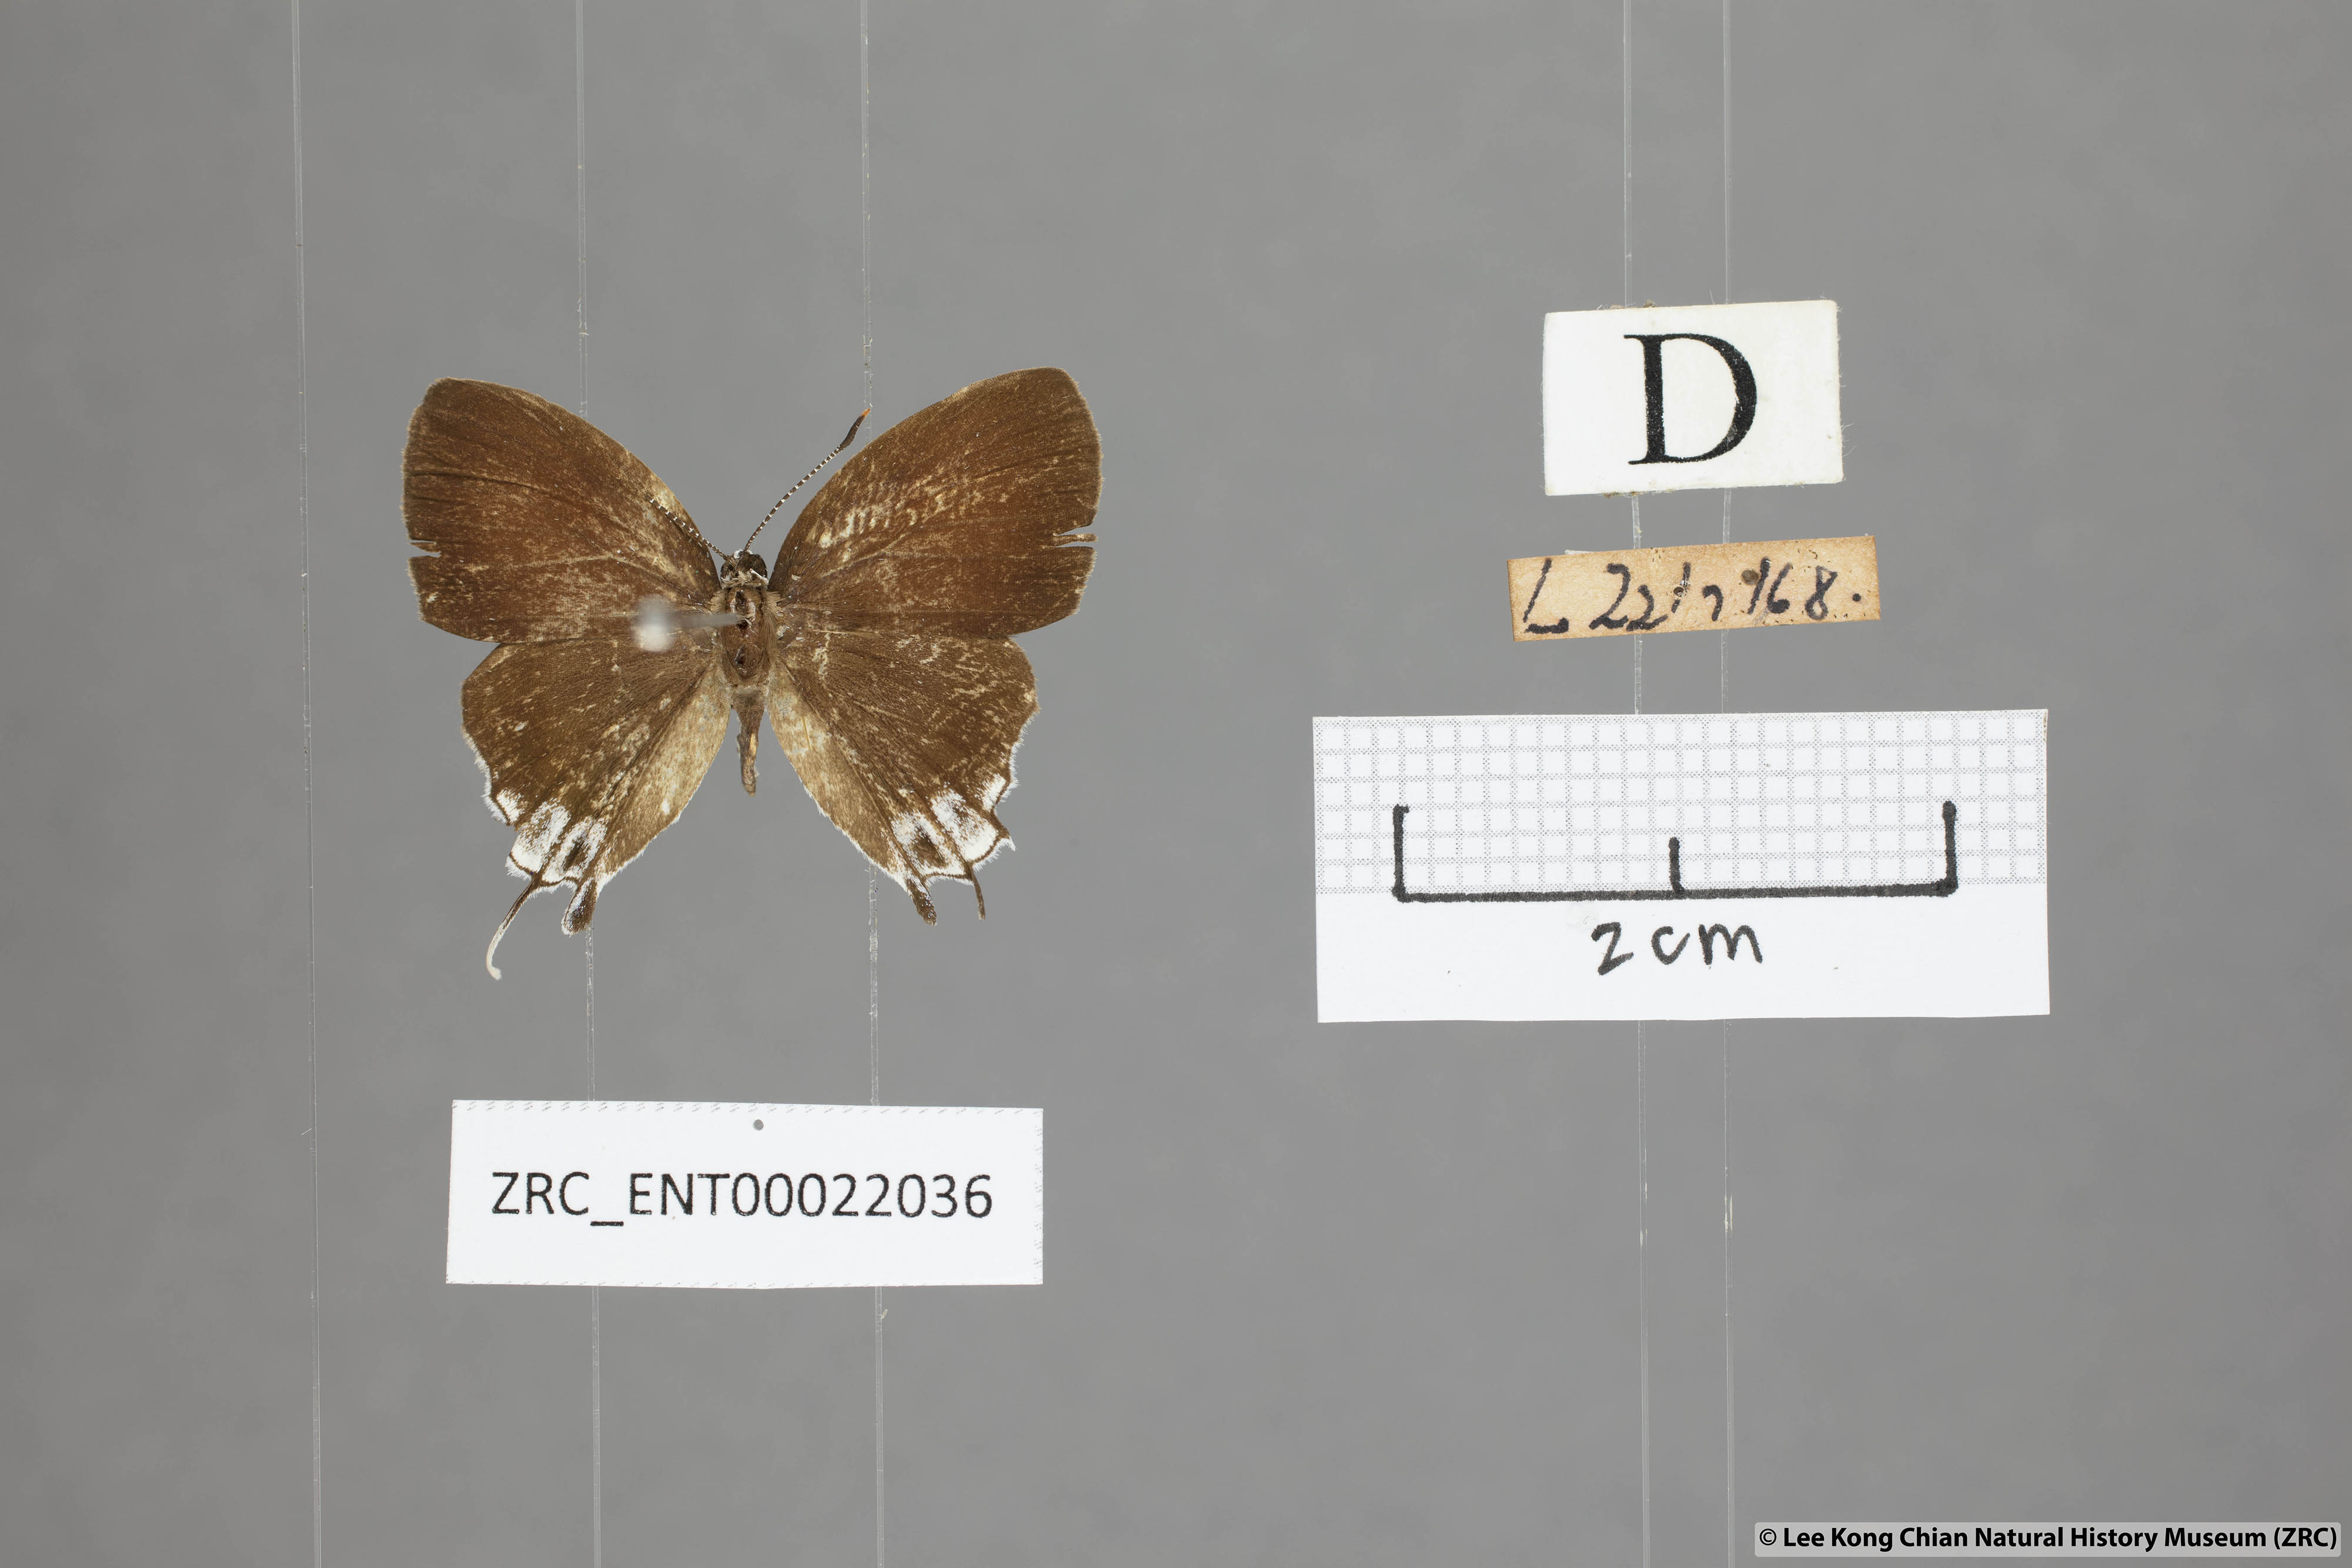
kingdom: Animalia
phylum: Arthropoda
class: Insecta
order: Lepidoptera
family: Lycaenidae
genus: Sithon
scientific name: Sithon nedymond
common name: Plush
